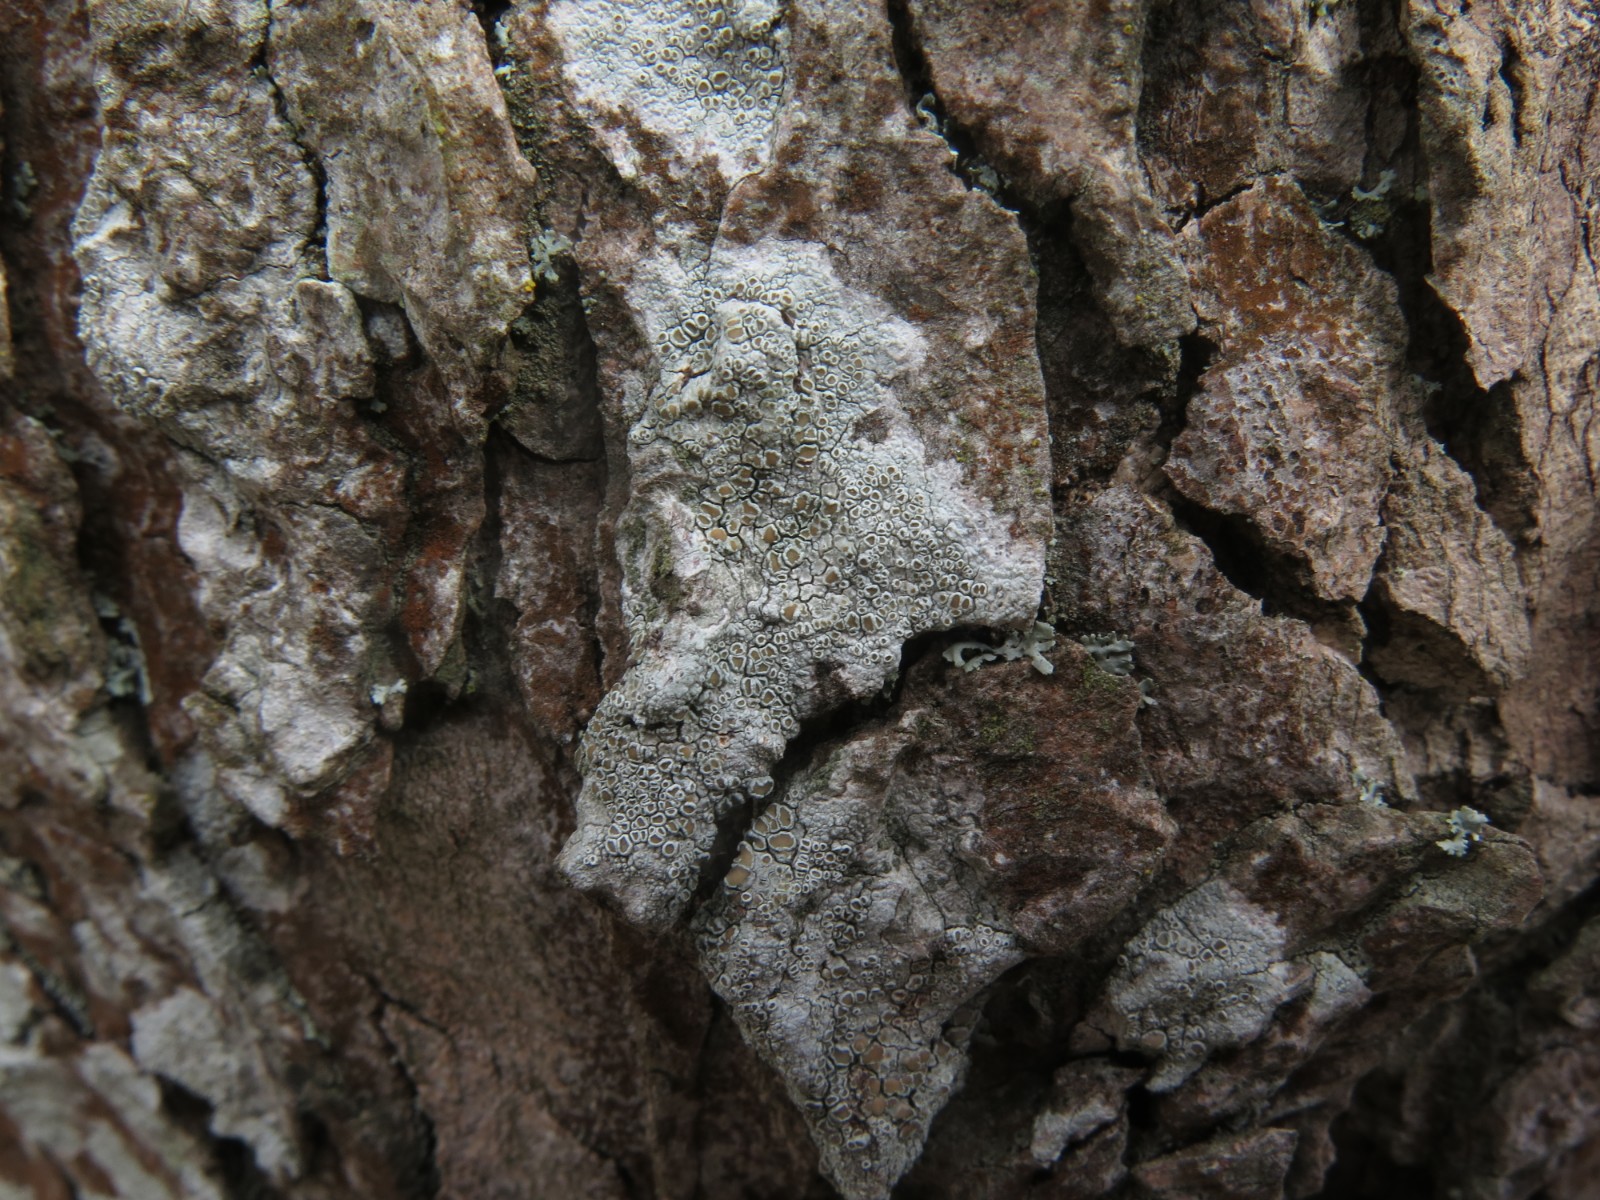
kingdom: Fungi
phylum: Ascomycota
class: Lecanoromycetes
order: Lecanorales
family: Lecanoraceae
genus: Lecanora
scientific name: Lecanora chlarotera
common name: brun kantskivelav
